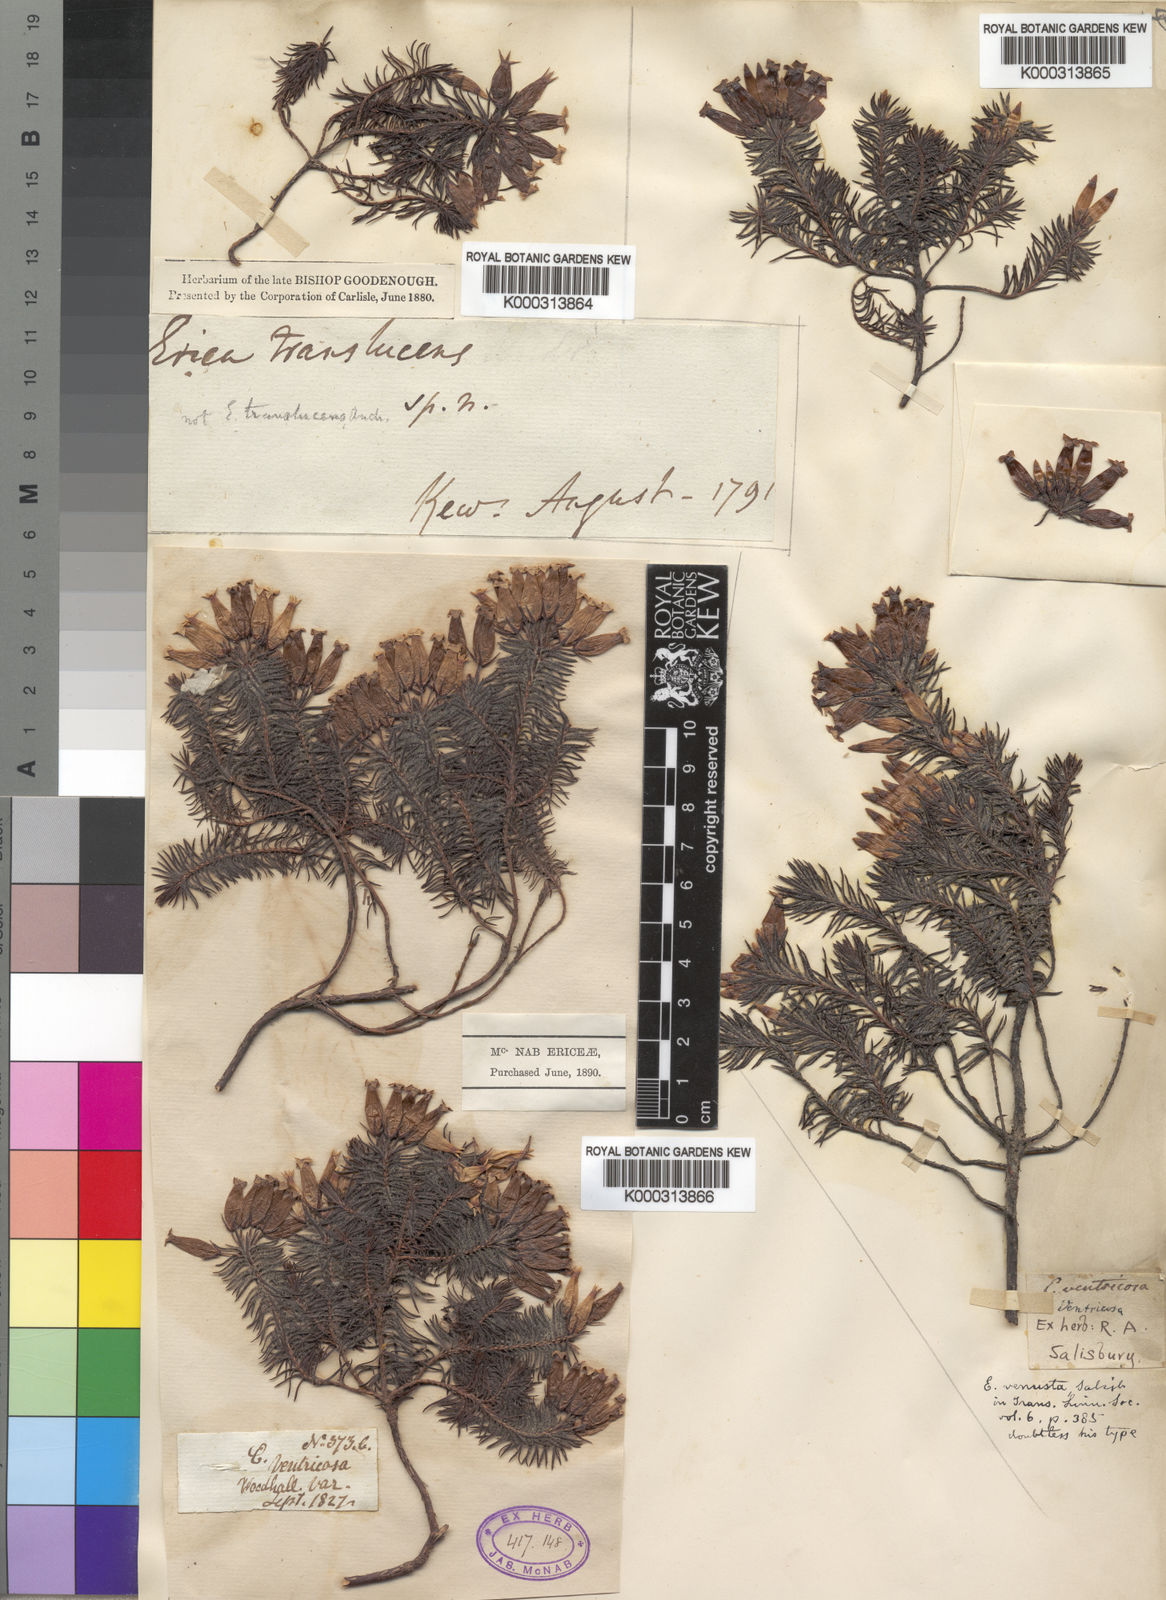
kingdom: Plantae
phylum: Tracheophyta
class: Magnoliopsida
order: Ericales
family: Ericaceae
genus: Erica
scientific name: Erica ventricosa
